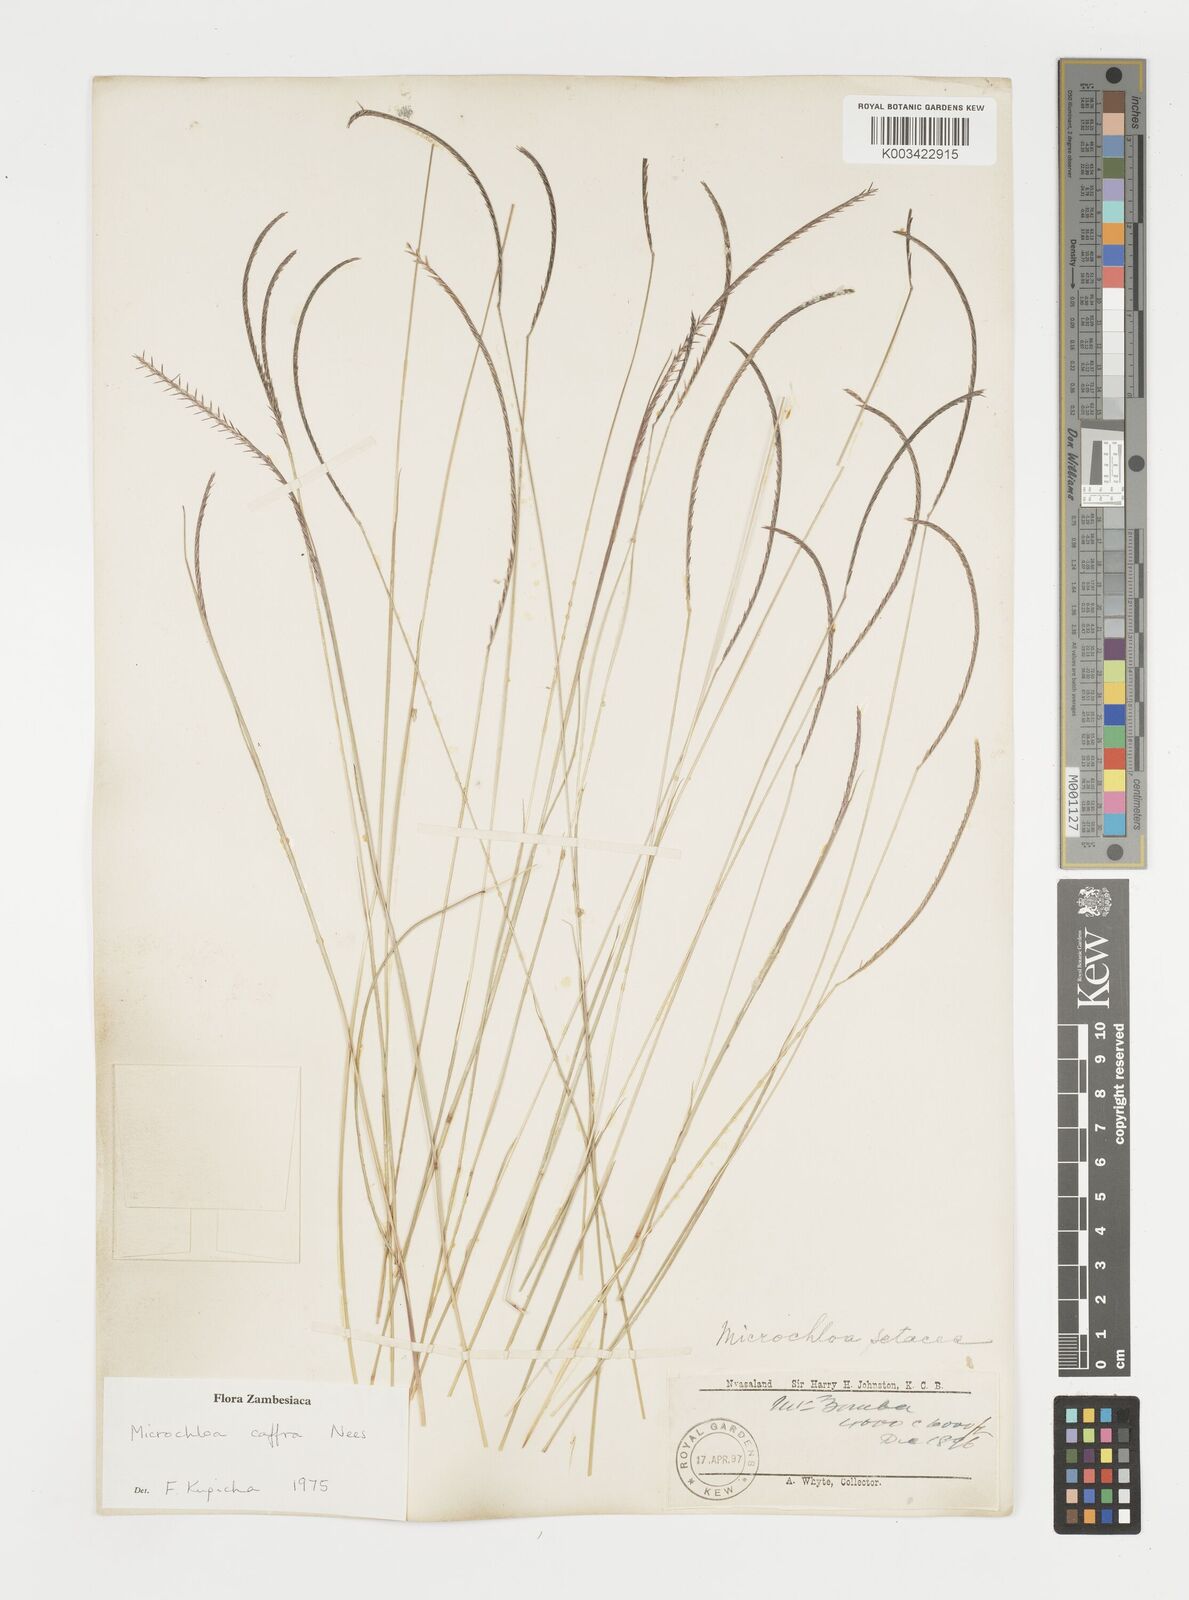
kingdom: Plantae
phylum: Tracheophyta
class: Liliopsida
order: Poales
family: Poaceae
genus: Microchloa
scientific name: Microchloa caffra
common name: Pincushion grass
